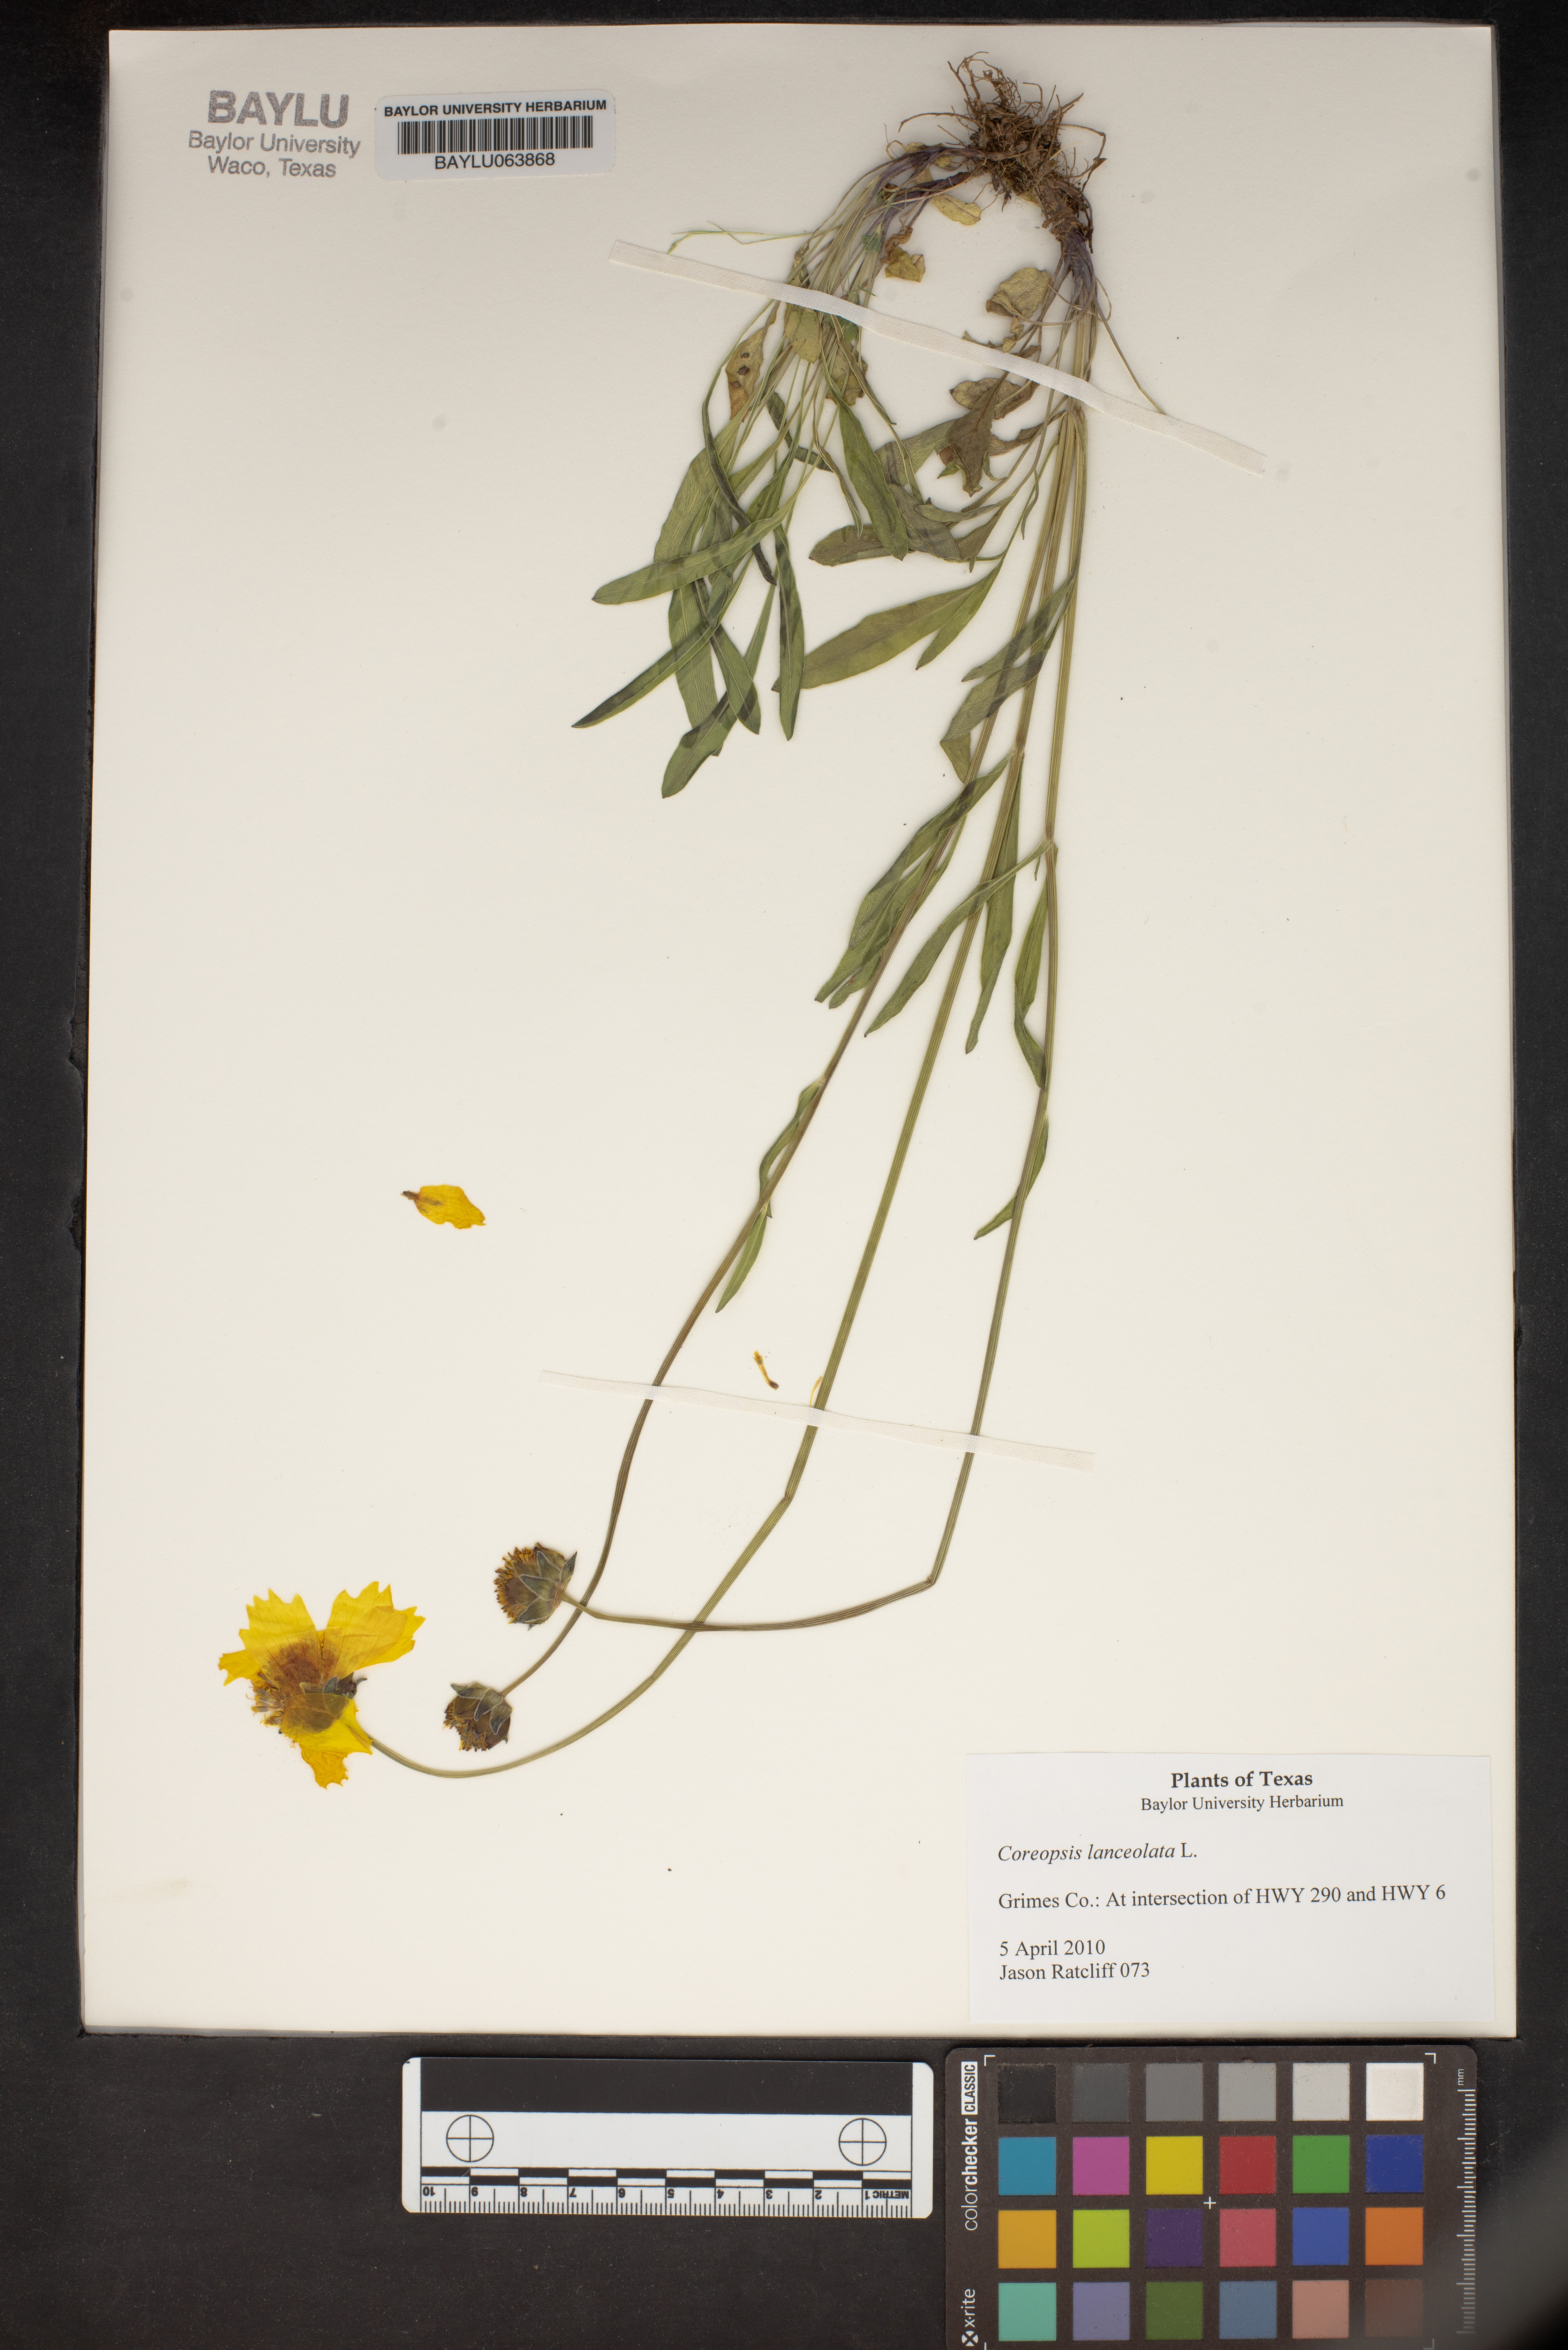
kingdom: Plantae
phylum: Tracheophyta
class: Magnoliopsida
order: Asterales
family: Asteraceae
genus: Coreopsis
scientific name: Coreopsis lanceolata
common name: Garden coreopsis
